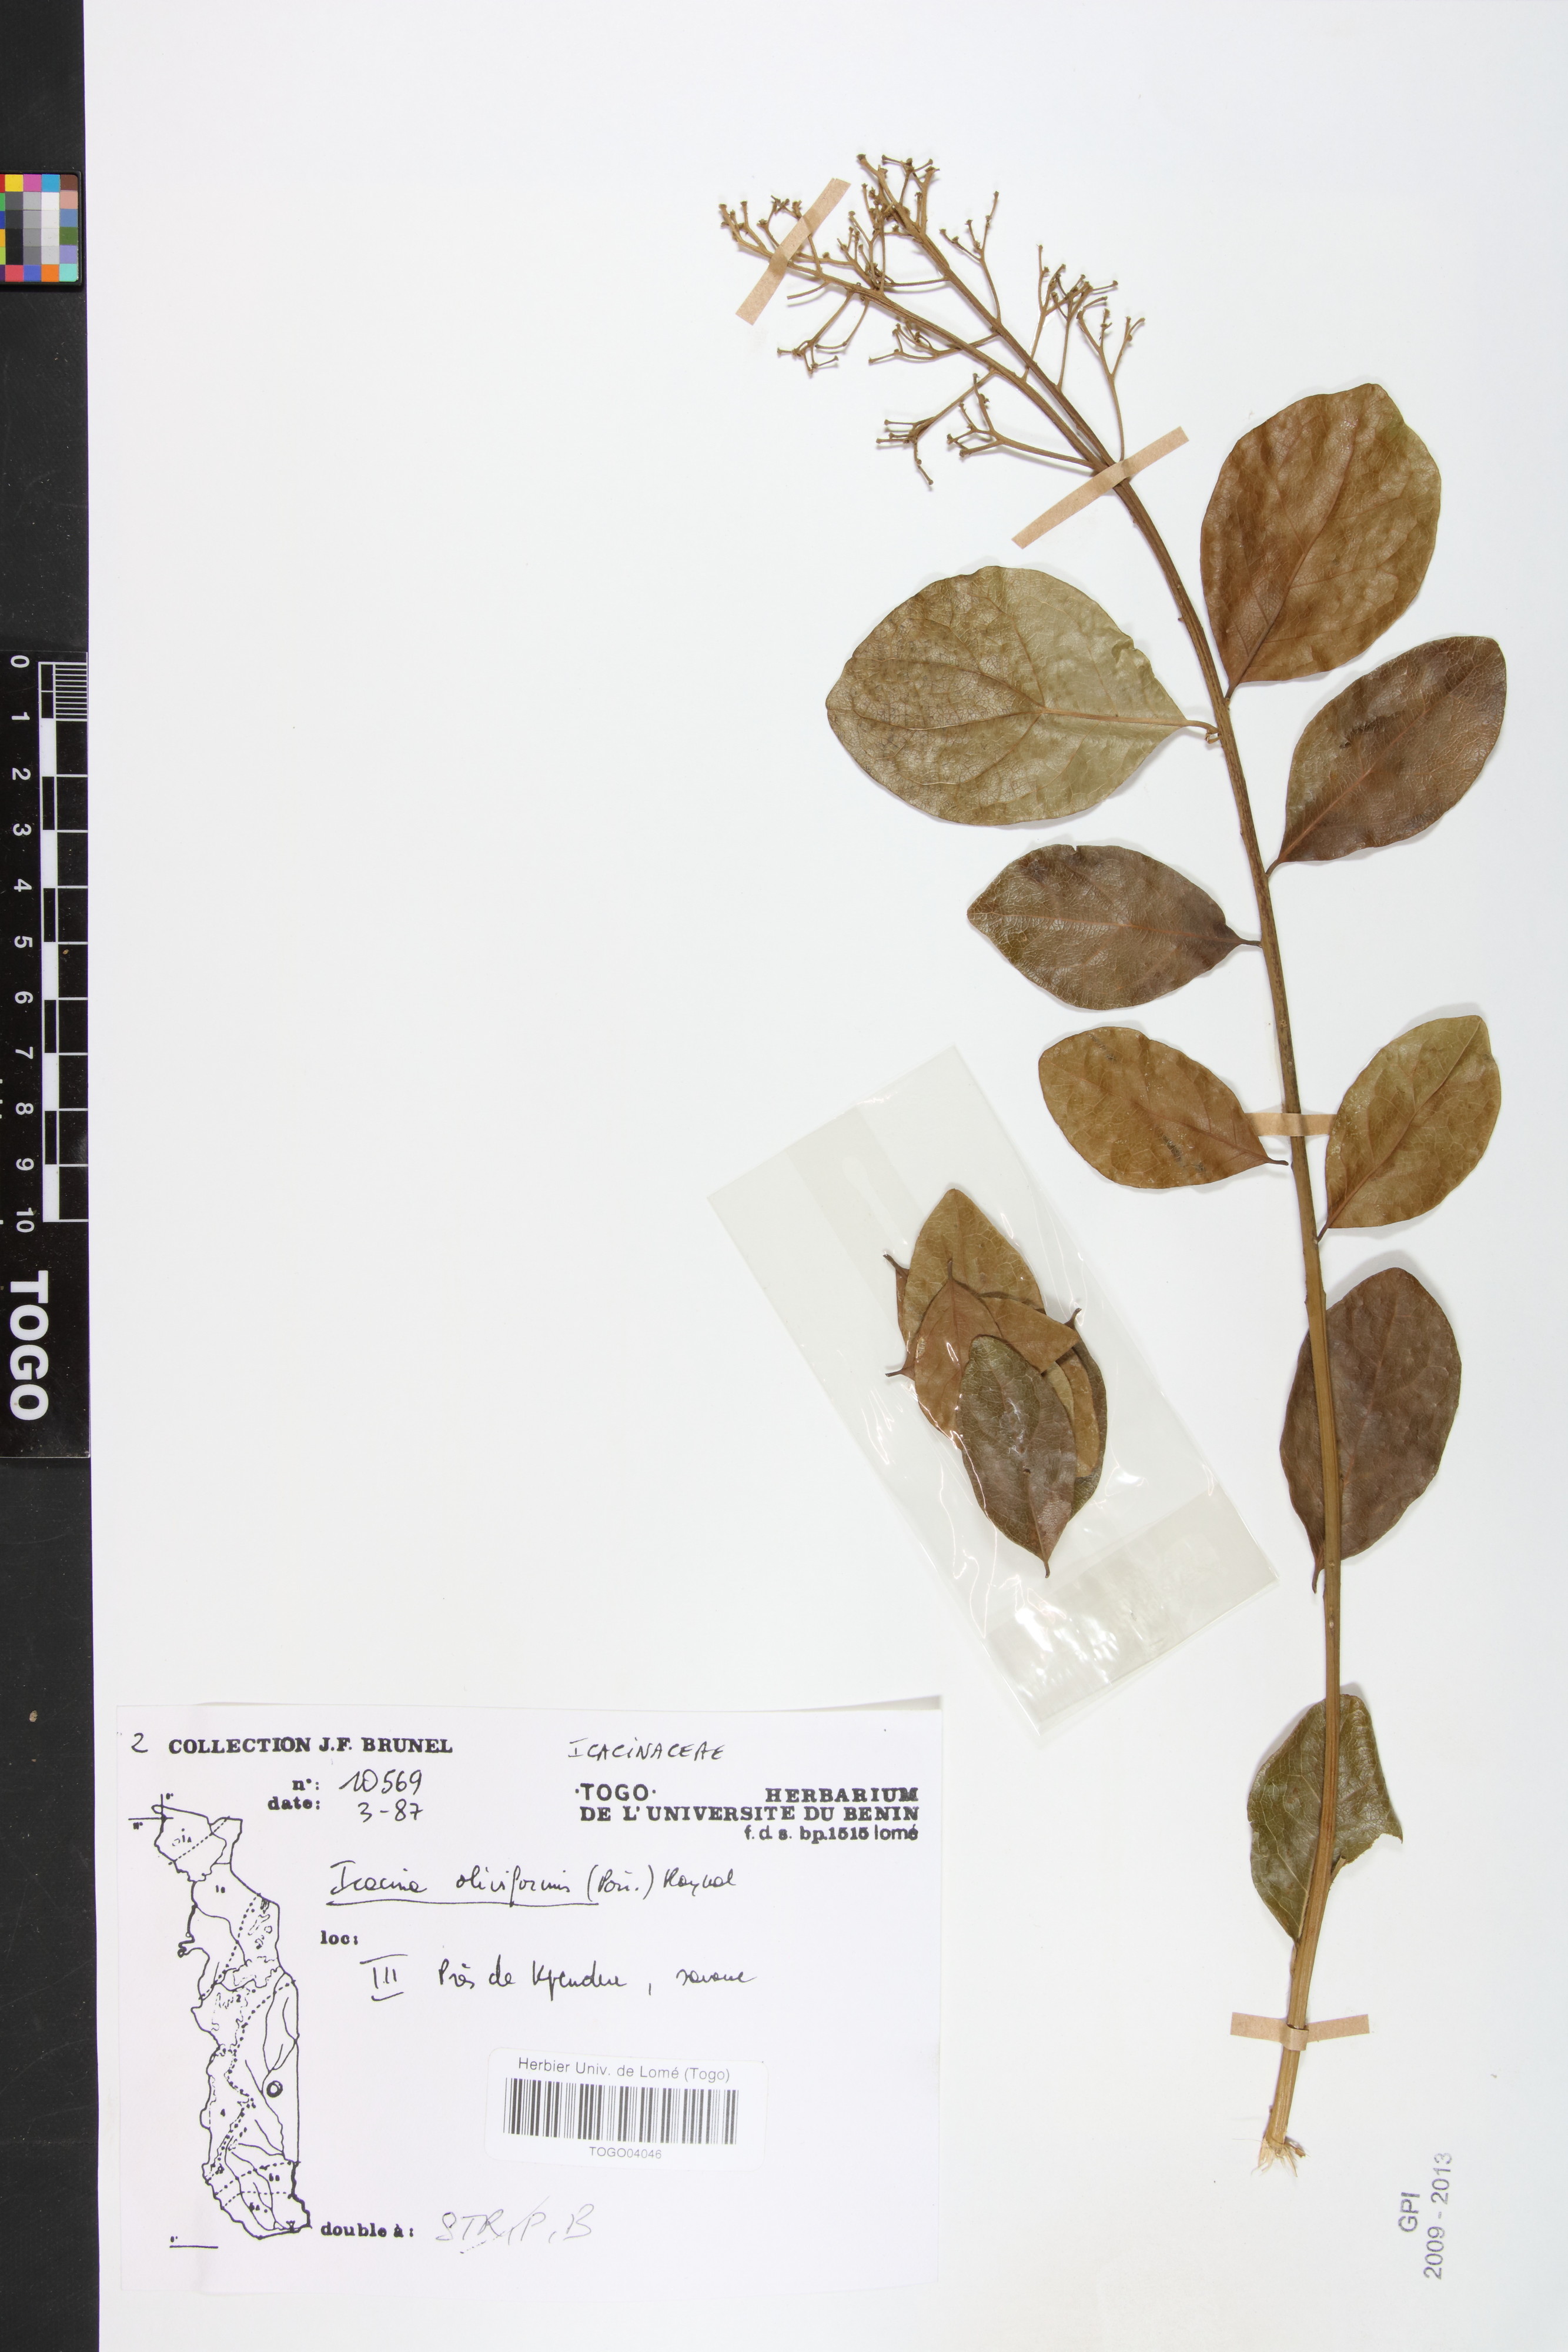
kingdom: Plantae
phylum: Tracheophyta
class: Magnoliopsida
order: Icacinales
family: Icacinaceae
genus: Icacina
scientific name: Icacina oliviformis
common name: False yam
